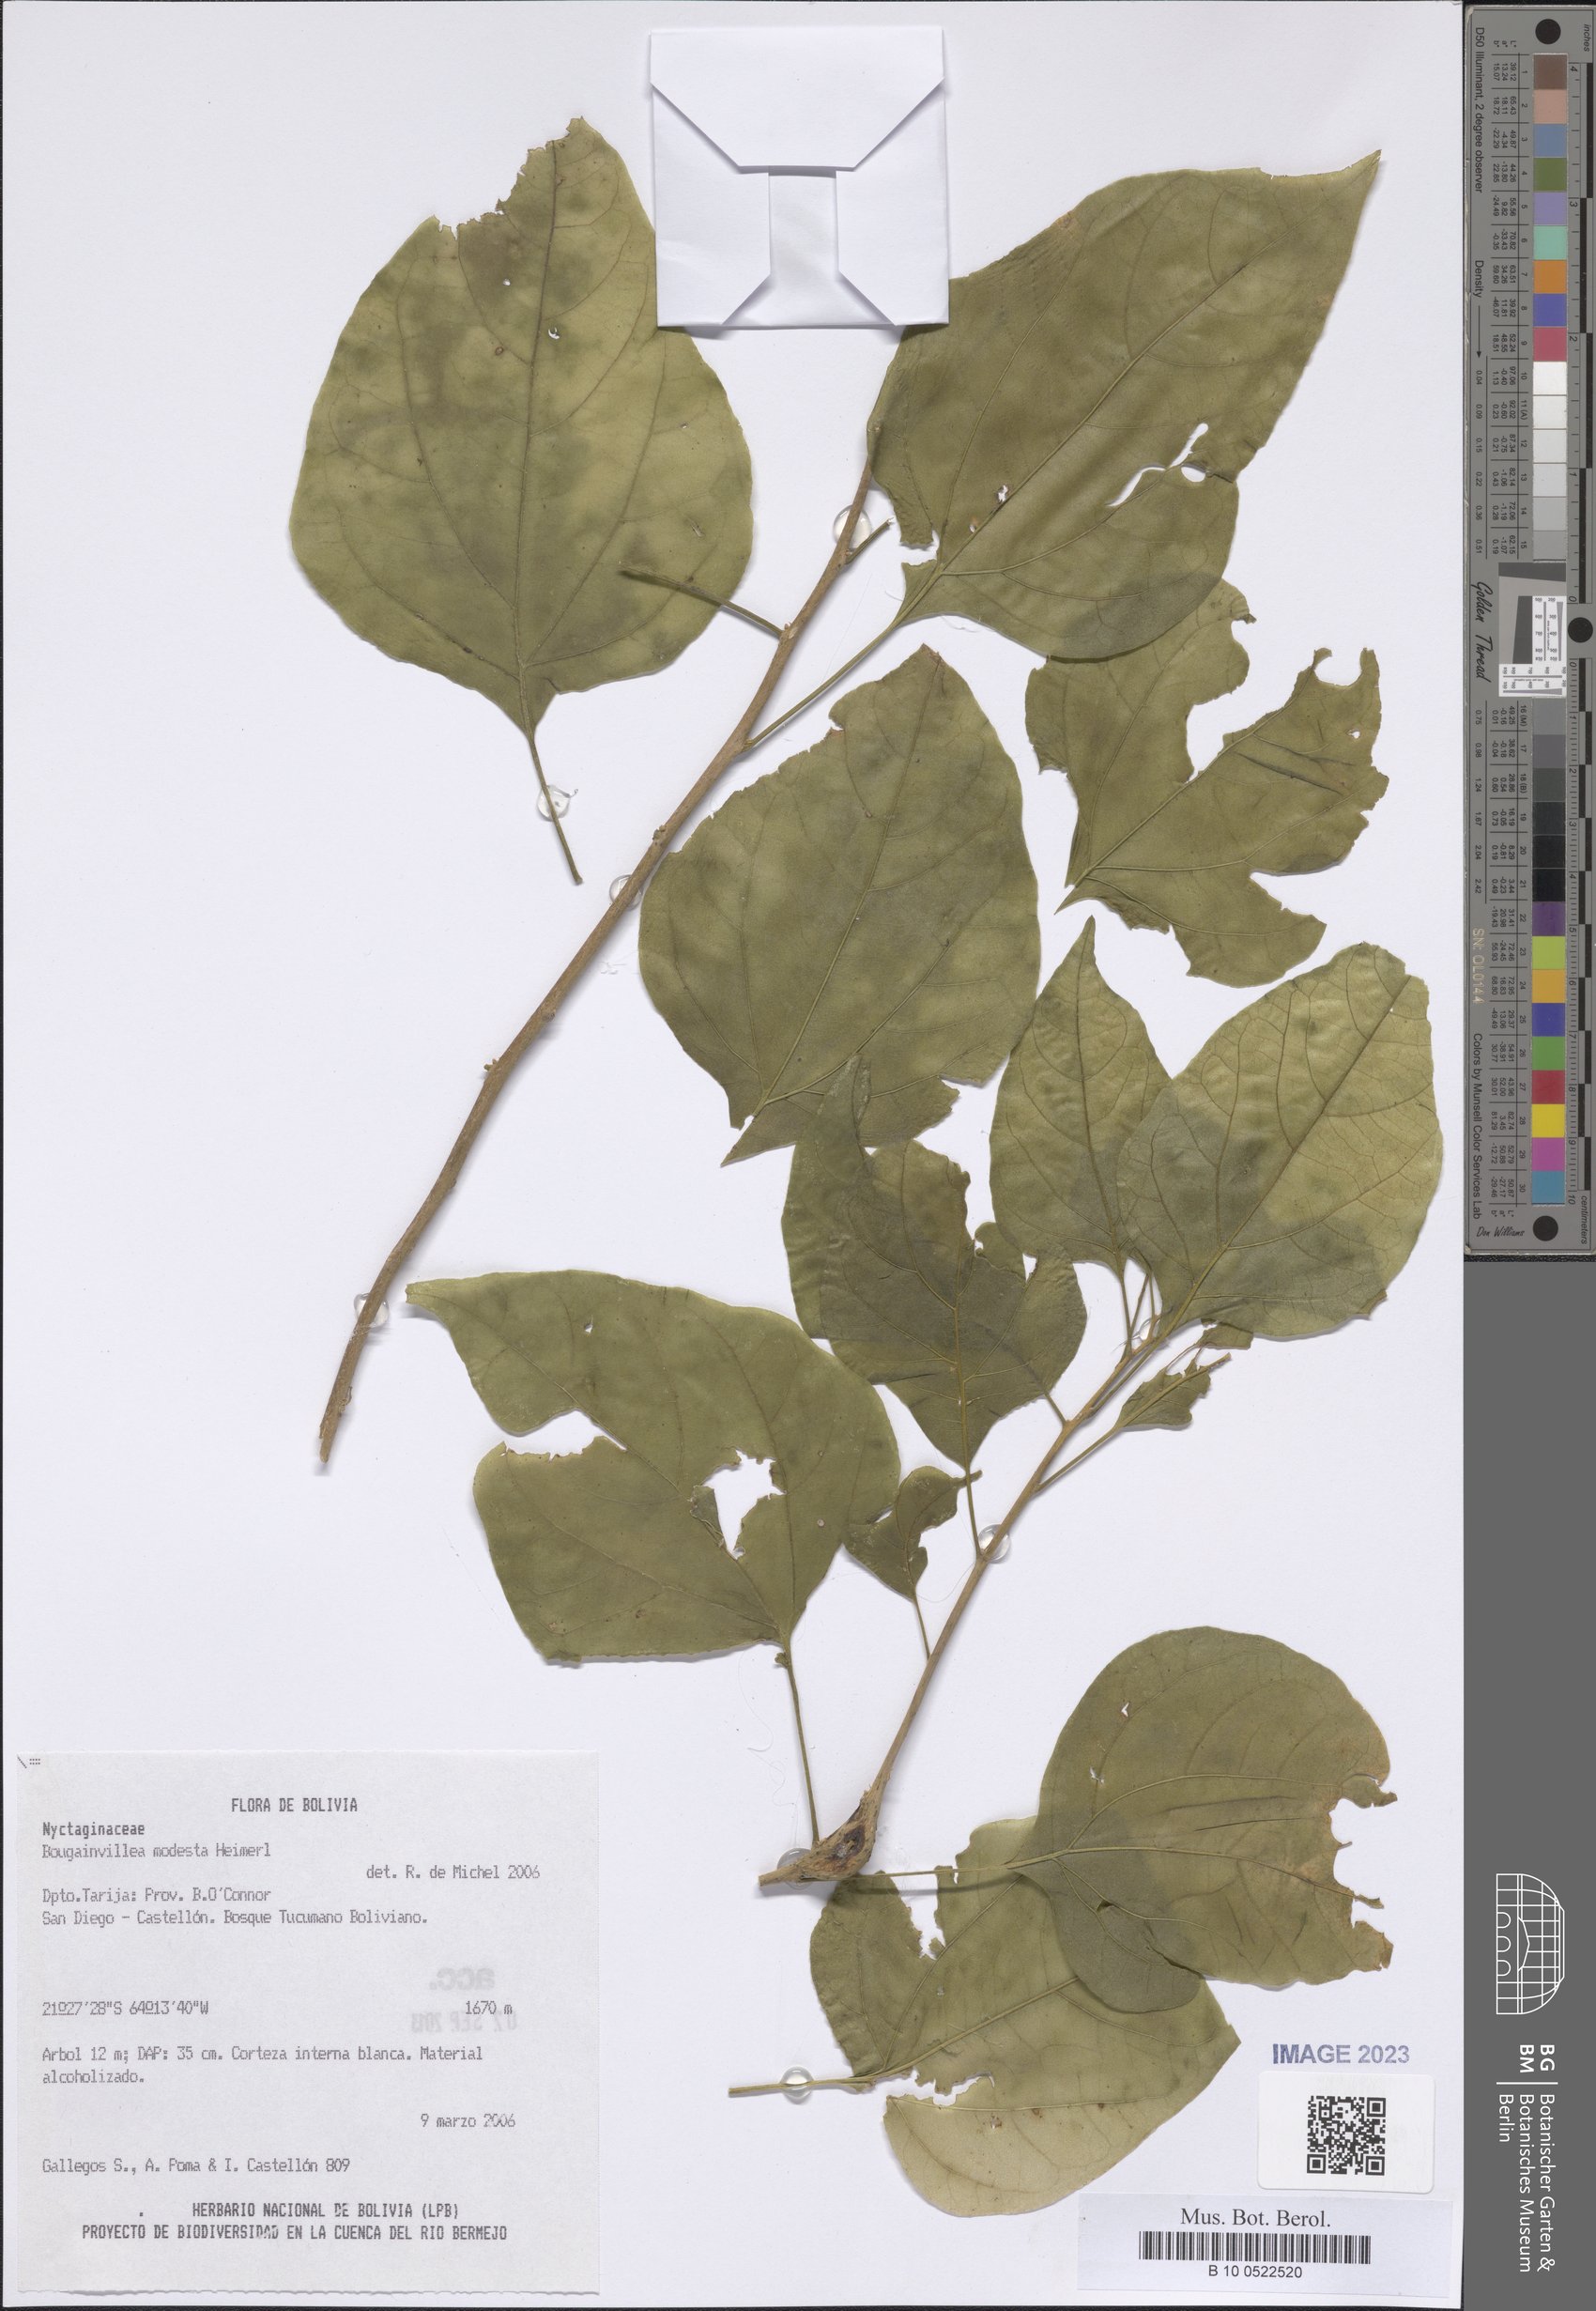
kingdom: Plantae
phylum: Tracheophyta
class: Magnoliopsida
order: Caryophyllales
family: Nyctaginaceae
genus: Bougainvillea
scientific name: Bougainvillea modesta
